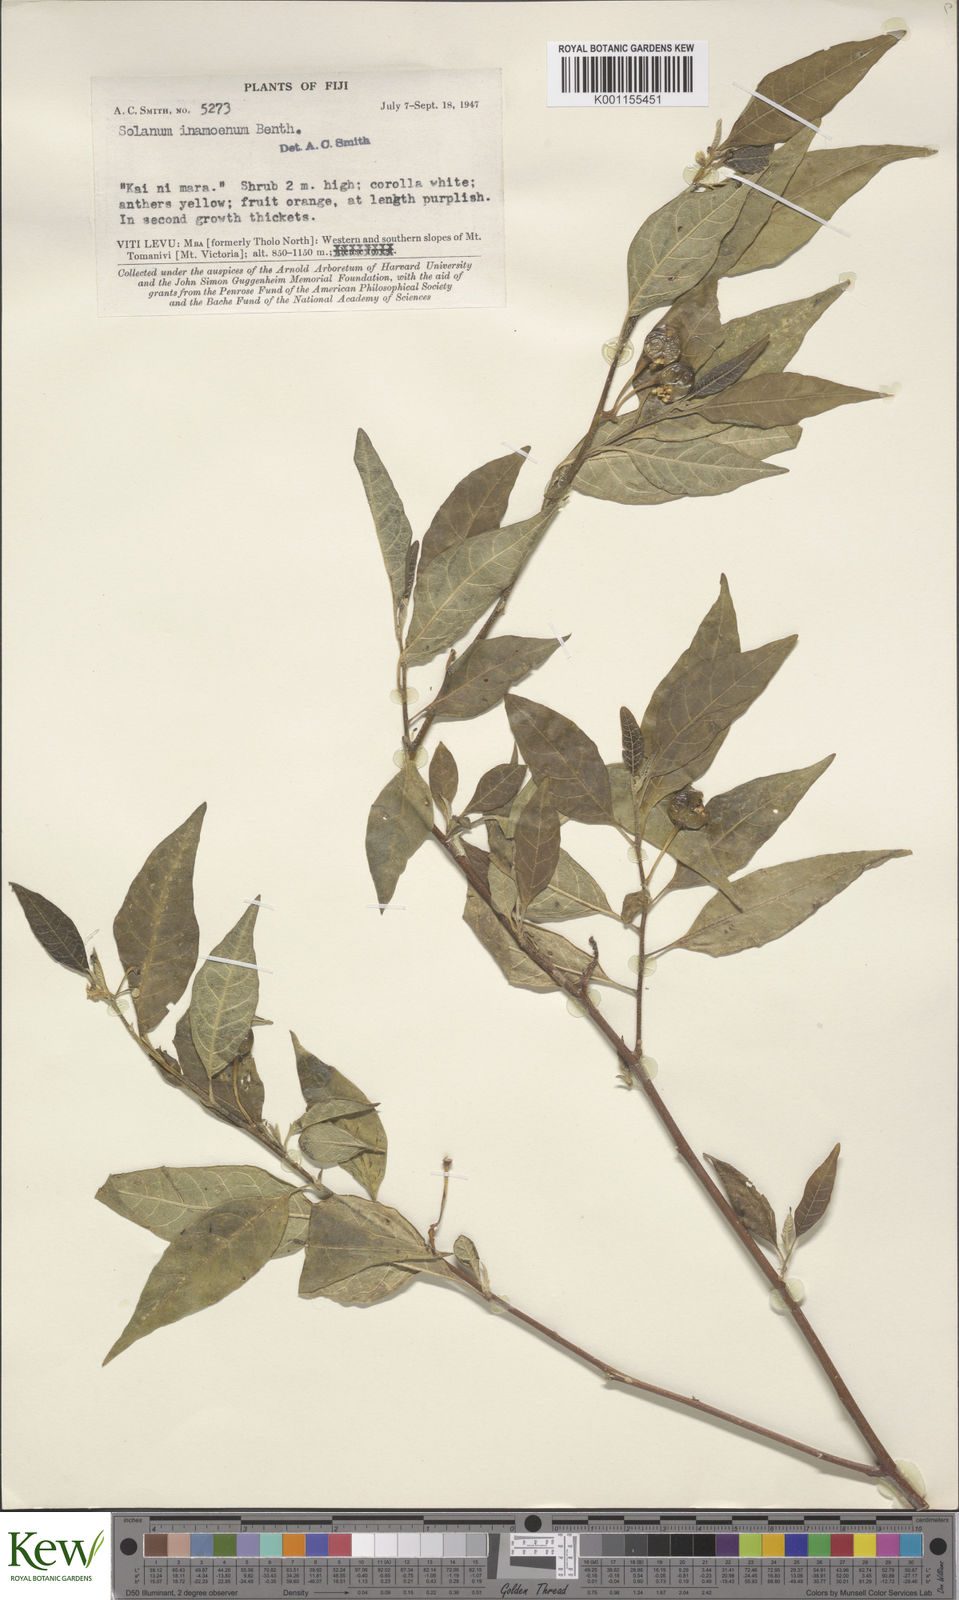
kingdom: Plantae
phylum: Tracheophyta
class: Magnoliopsida
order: Solanales
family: Solanaceae
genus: Solanum
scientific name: Solanum inamoenum
